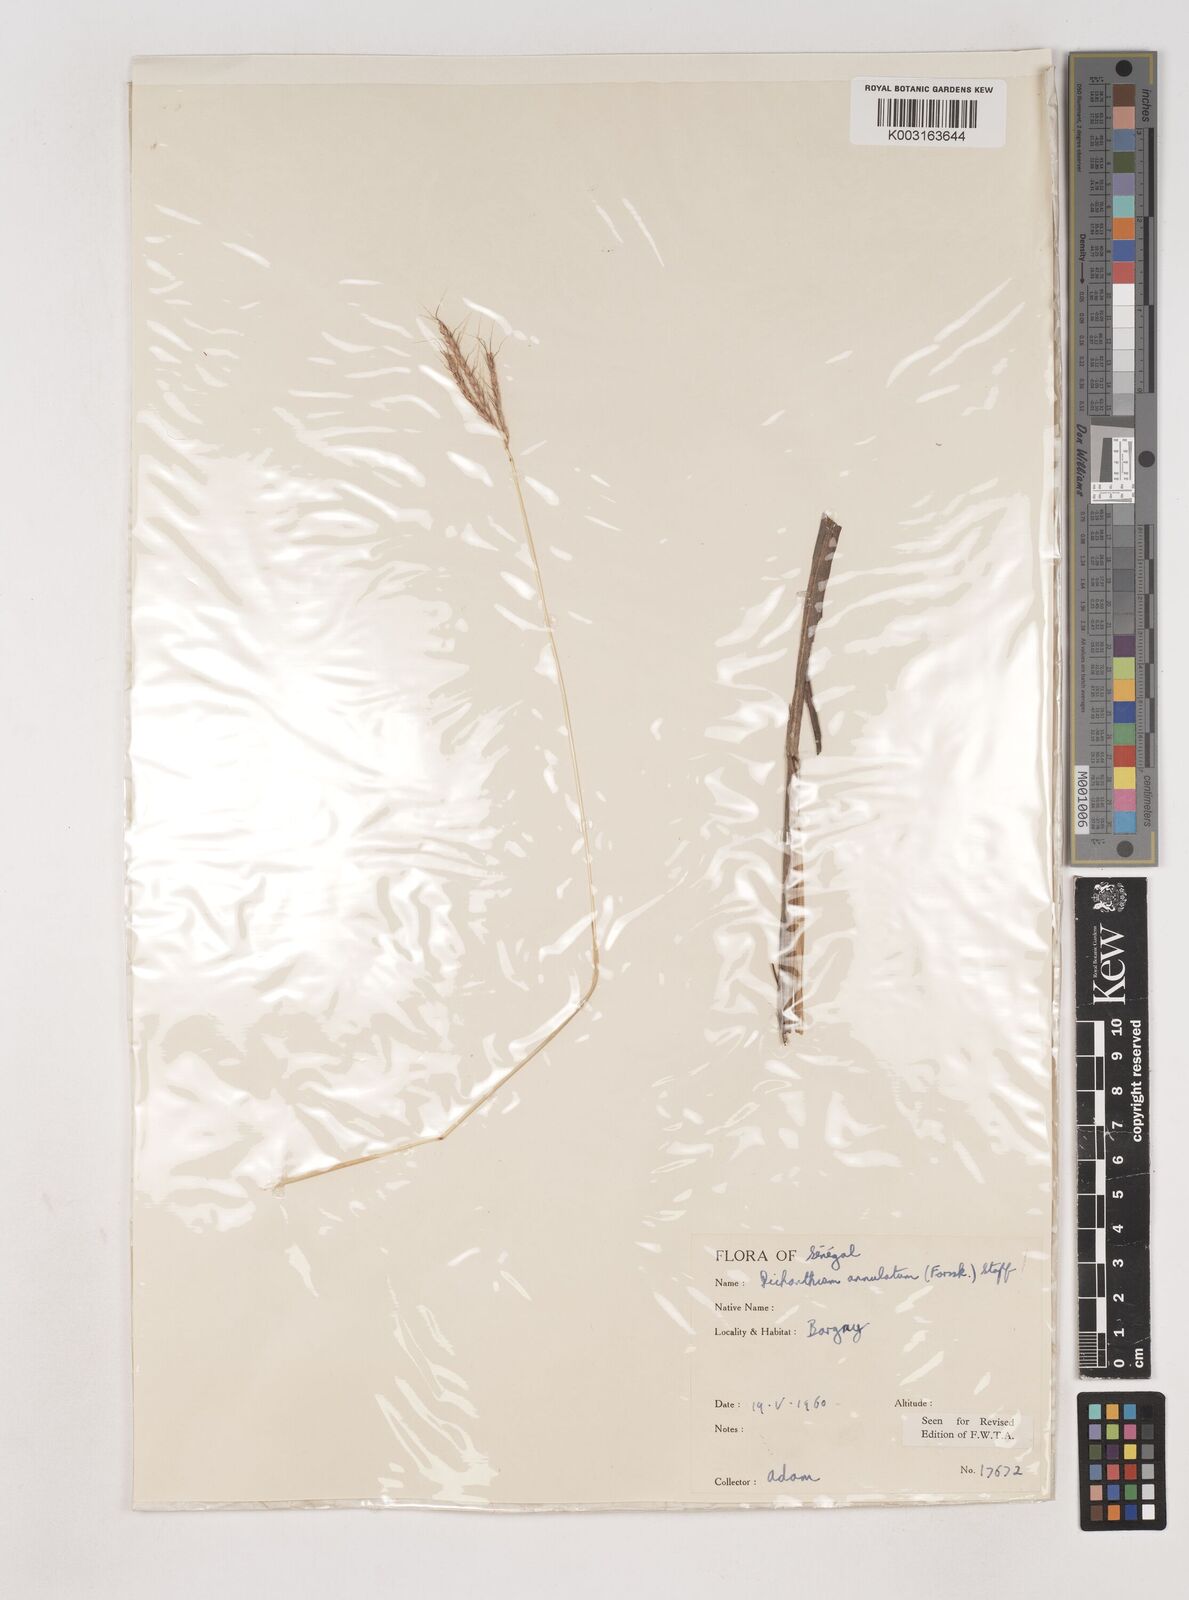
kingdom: Plantae
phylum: Tracheophyta
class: Liliopsida
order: Poales
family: Poaceae
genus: Dichanthium
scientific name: Dichanthium annulatum
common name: Kleberg's bluestem
